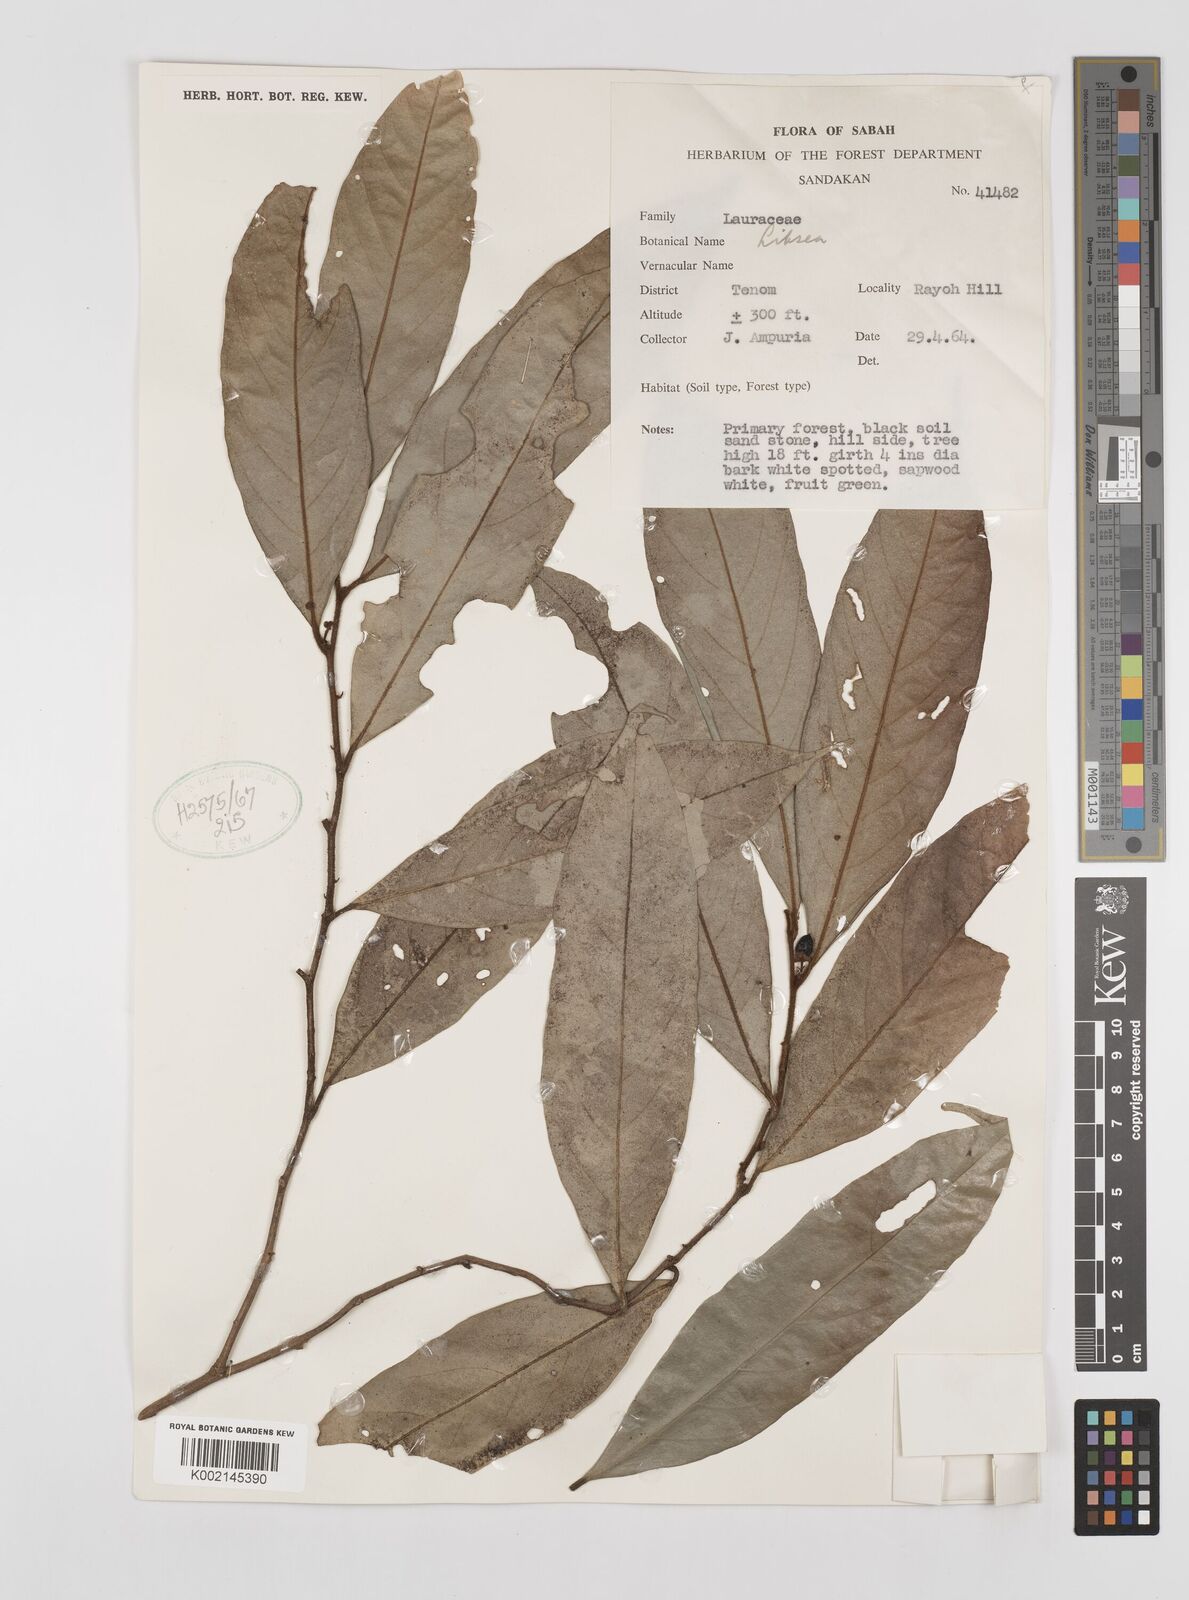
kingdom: Plantae
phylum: Tracheophyta
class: Magnoliopsida
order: Laurales
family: Lauraceae
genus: Litsea
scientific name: Litsea
